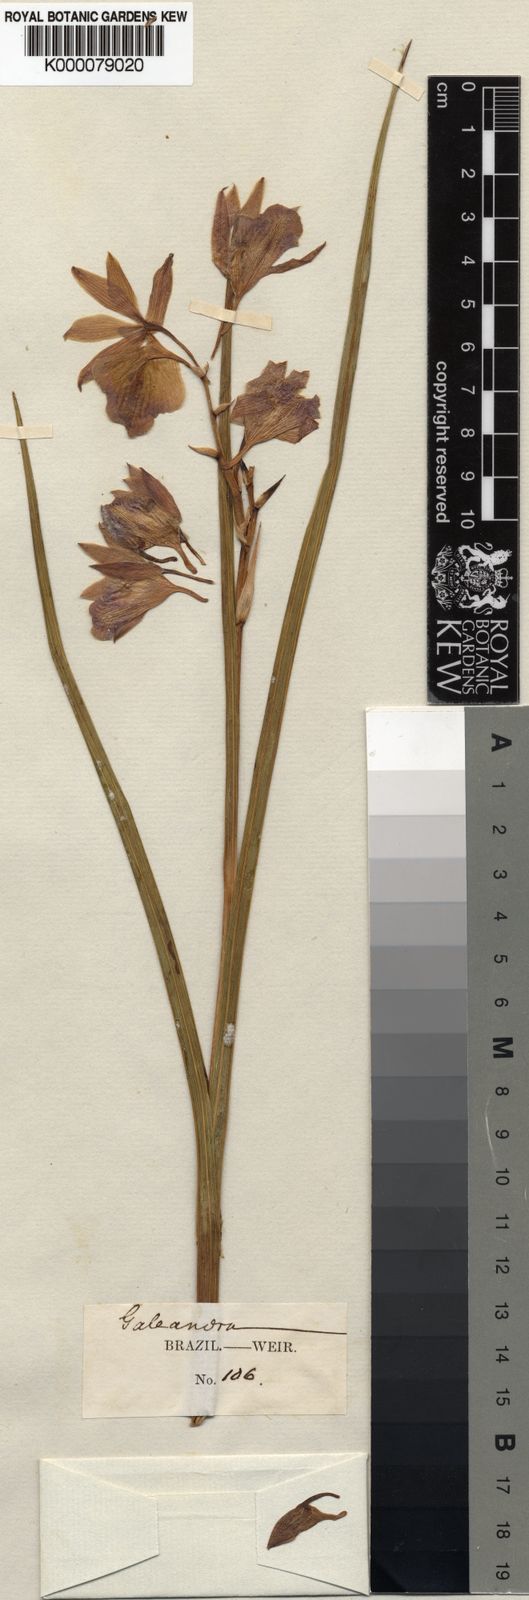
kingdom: Plantae
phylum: Tracheophyta
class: Liliopsida
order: Asparagales
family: Orchidaceae
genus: Galeandra
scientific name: Galeandra
